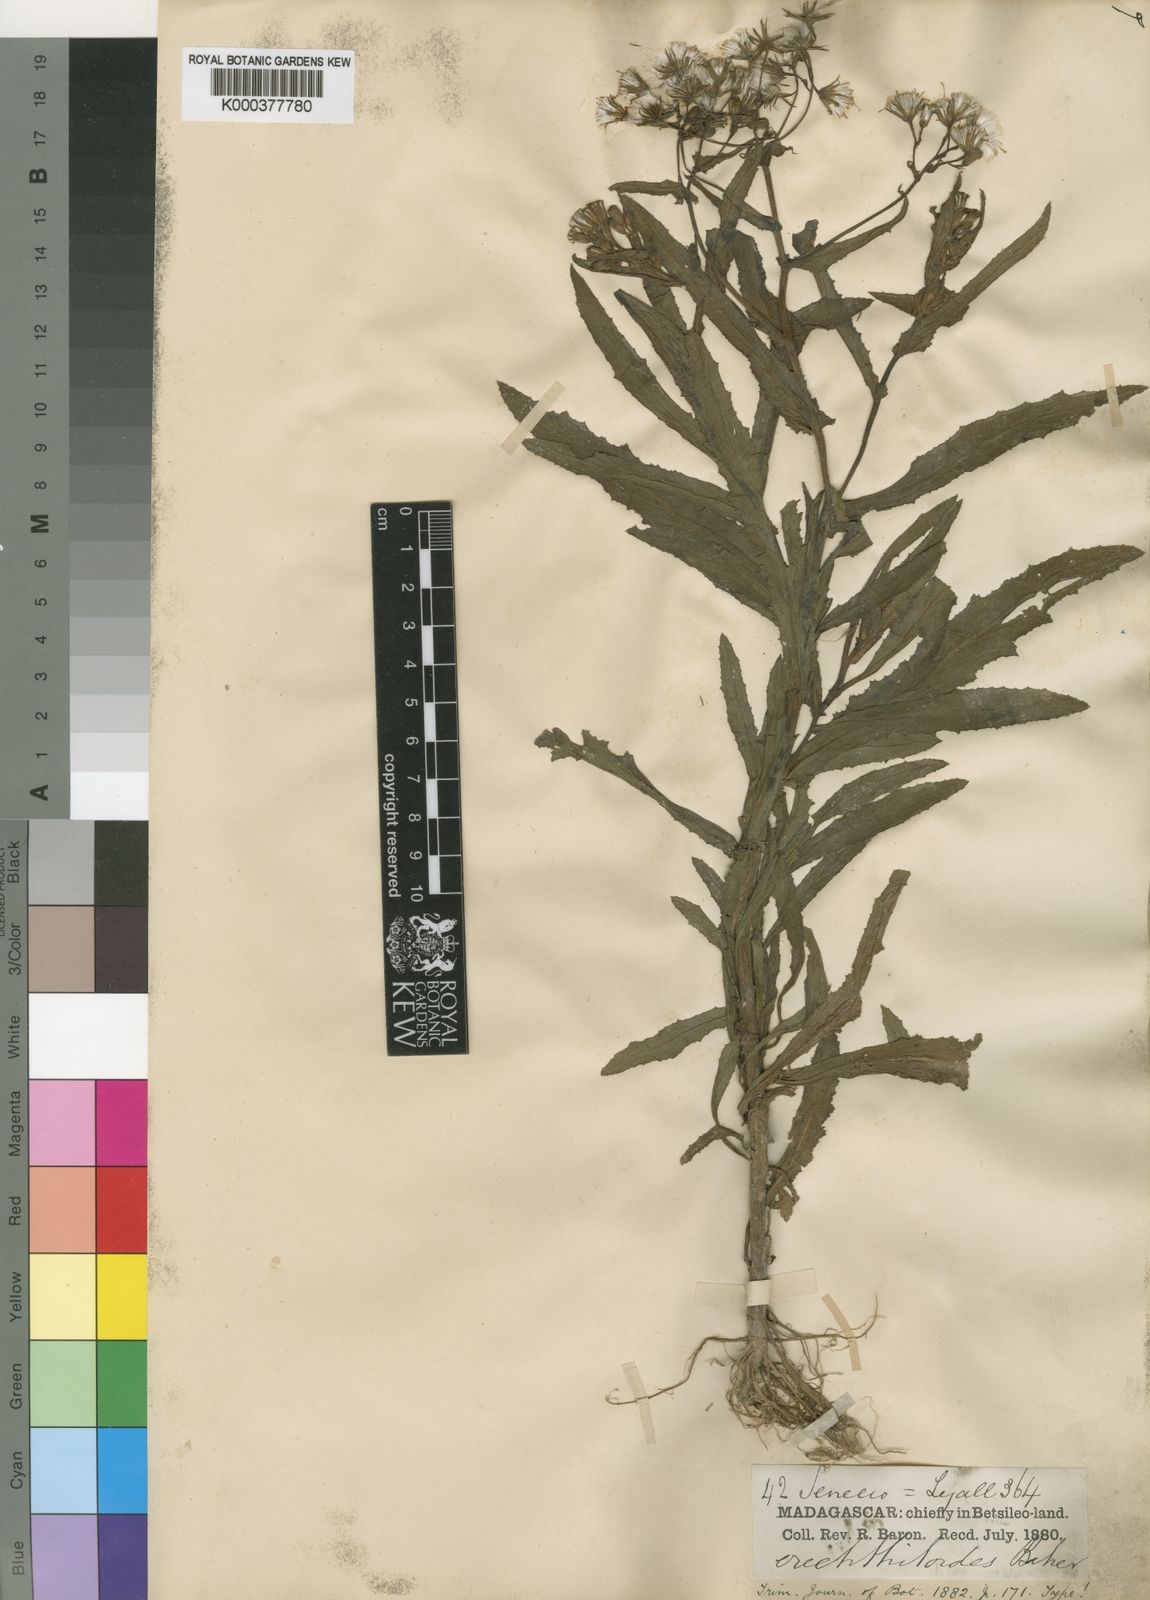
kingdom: Plantae
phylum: Tracheophyta
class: Magnoliopsida
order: Asterales
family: Asteraceae
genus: Senecio
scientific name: Senecio garnieri
